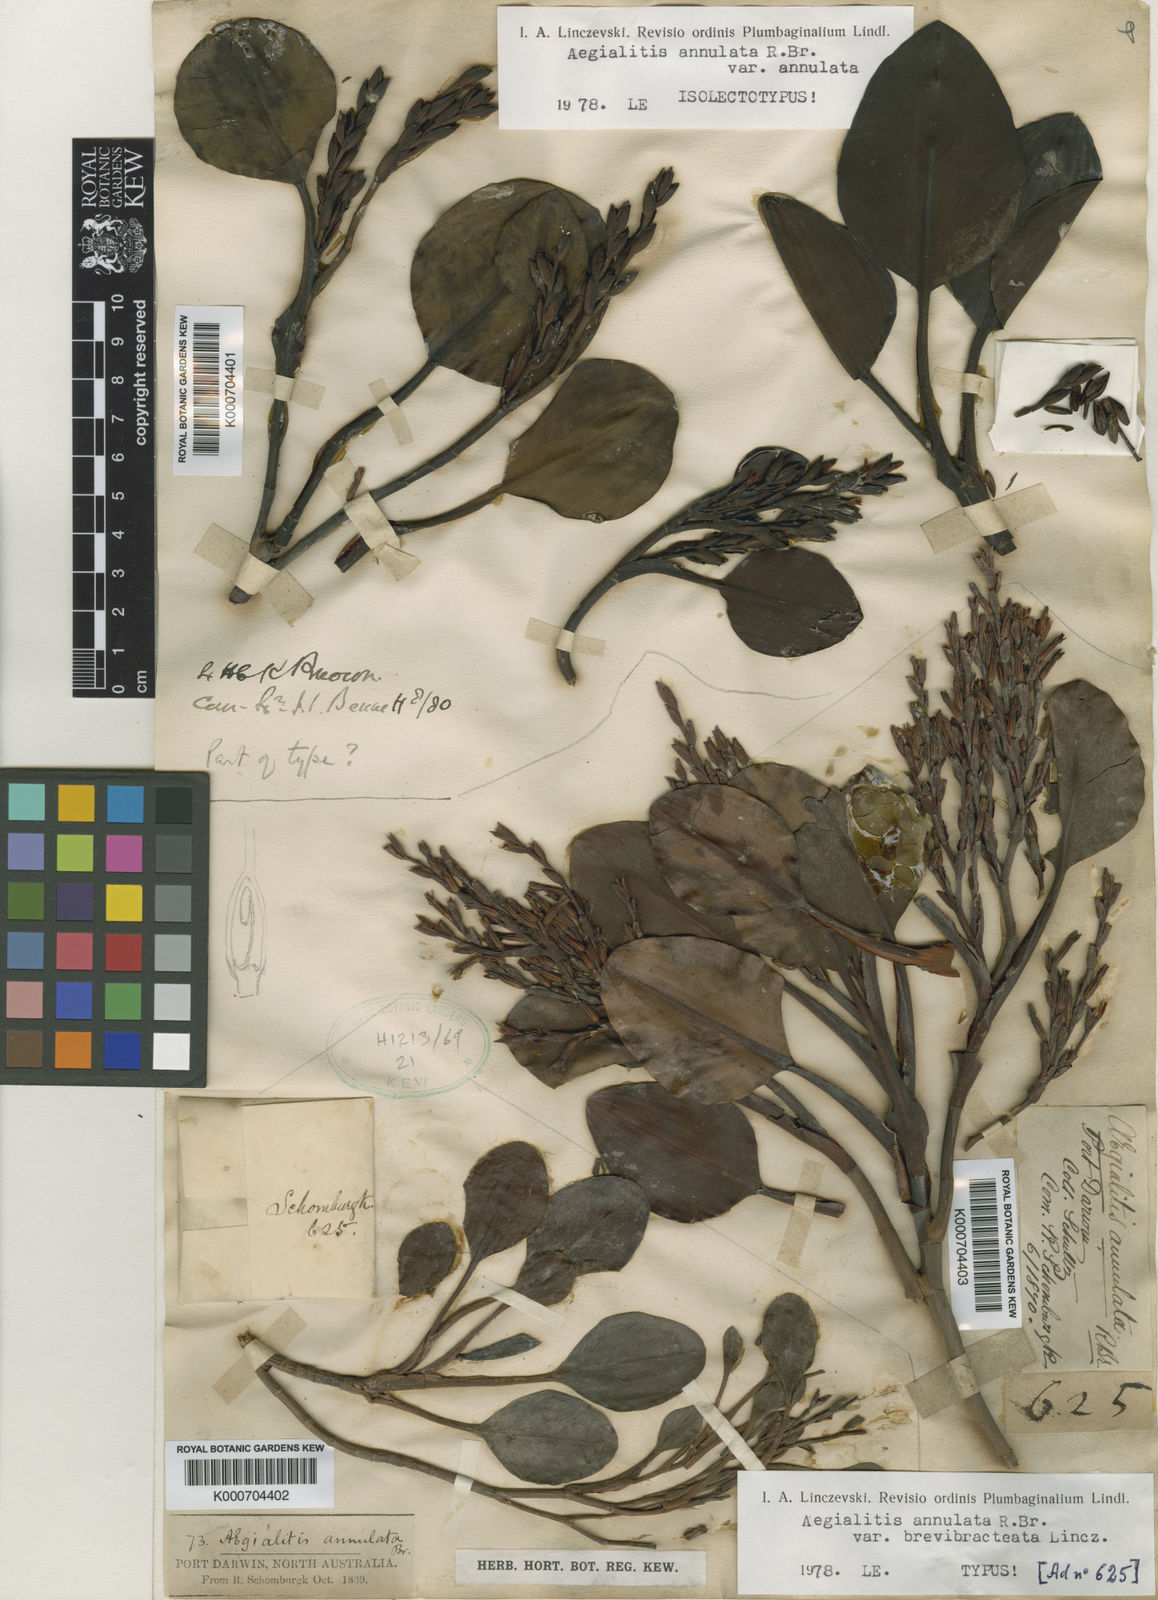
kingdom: Plantae
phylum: Tracheophyta
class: Magnoliopsida
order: Caryophyllales
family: Plumbaginaceae
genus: Aegialitis
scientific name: Aegialitis annulata
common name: Club mangrove
